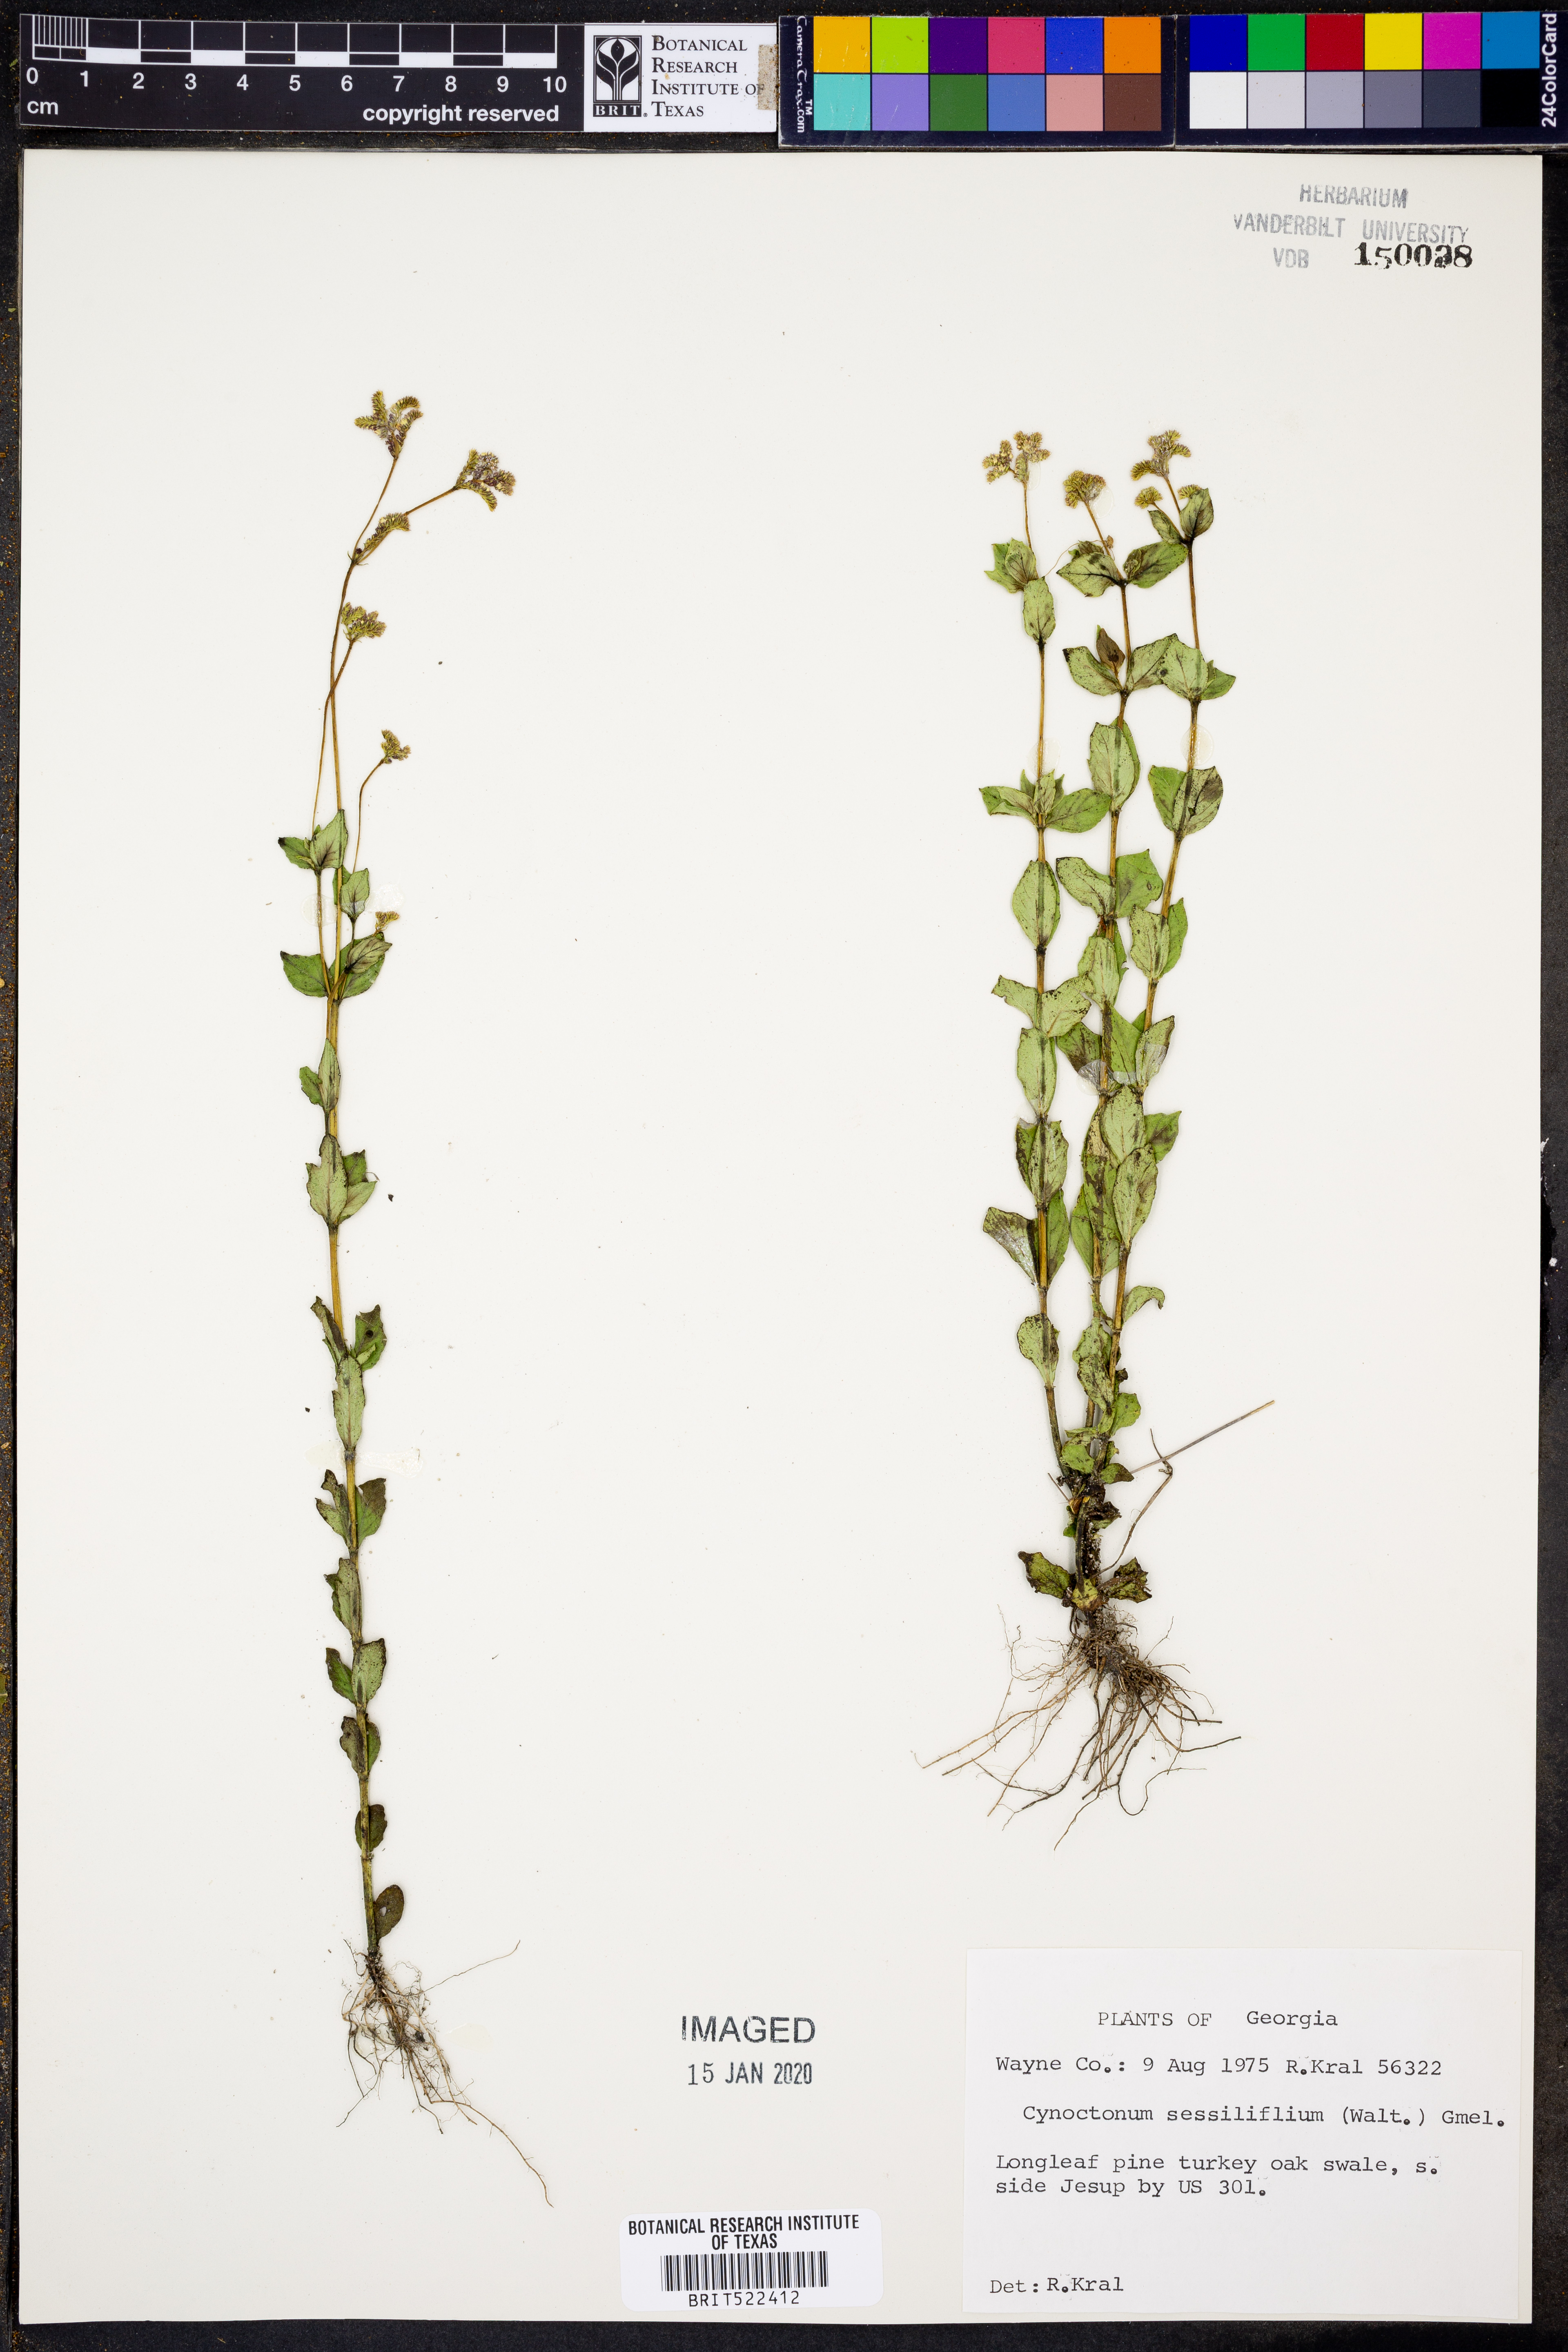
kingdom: Plantae
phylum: Tracheophyta
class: Magnoliopsida
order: Gentianales
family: Loganiaceae
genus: Mitreola
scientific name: Mitreola sessilifolia
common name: Swamp hornpod
